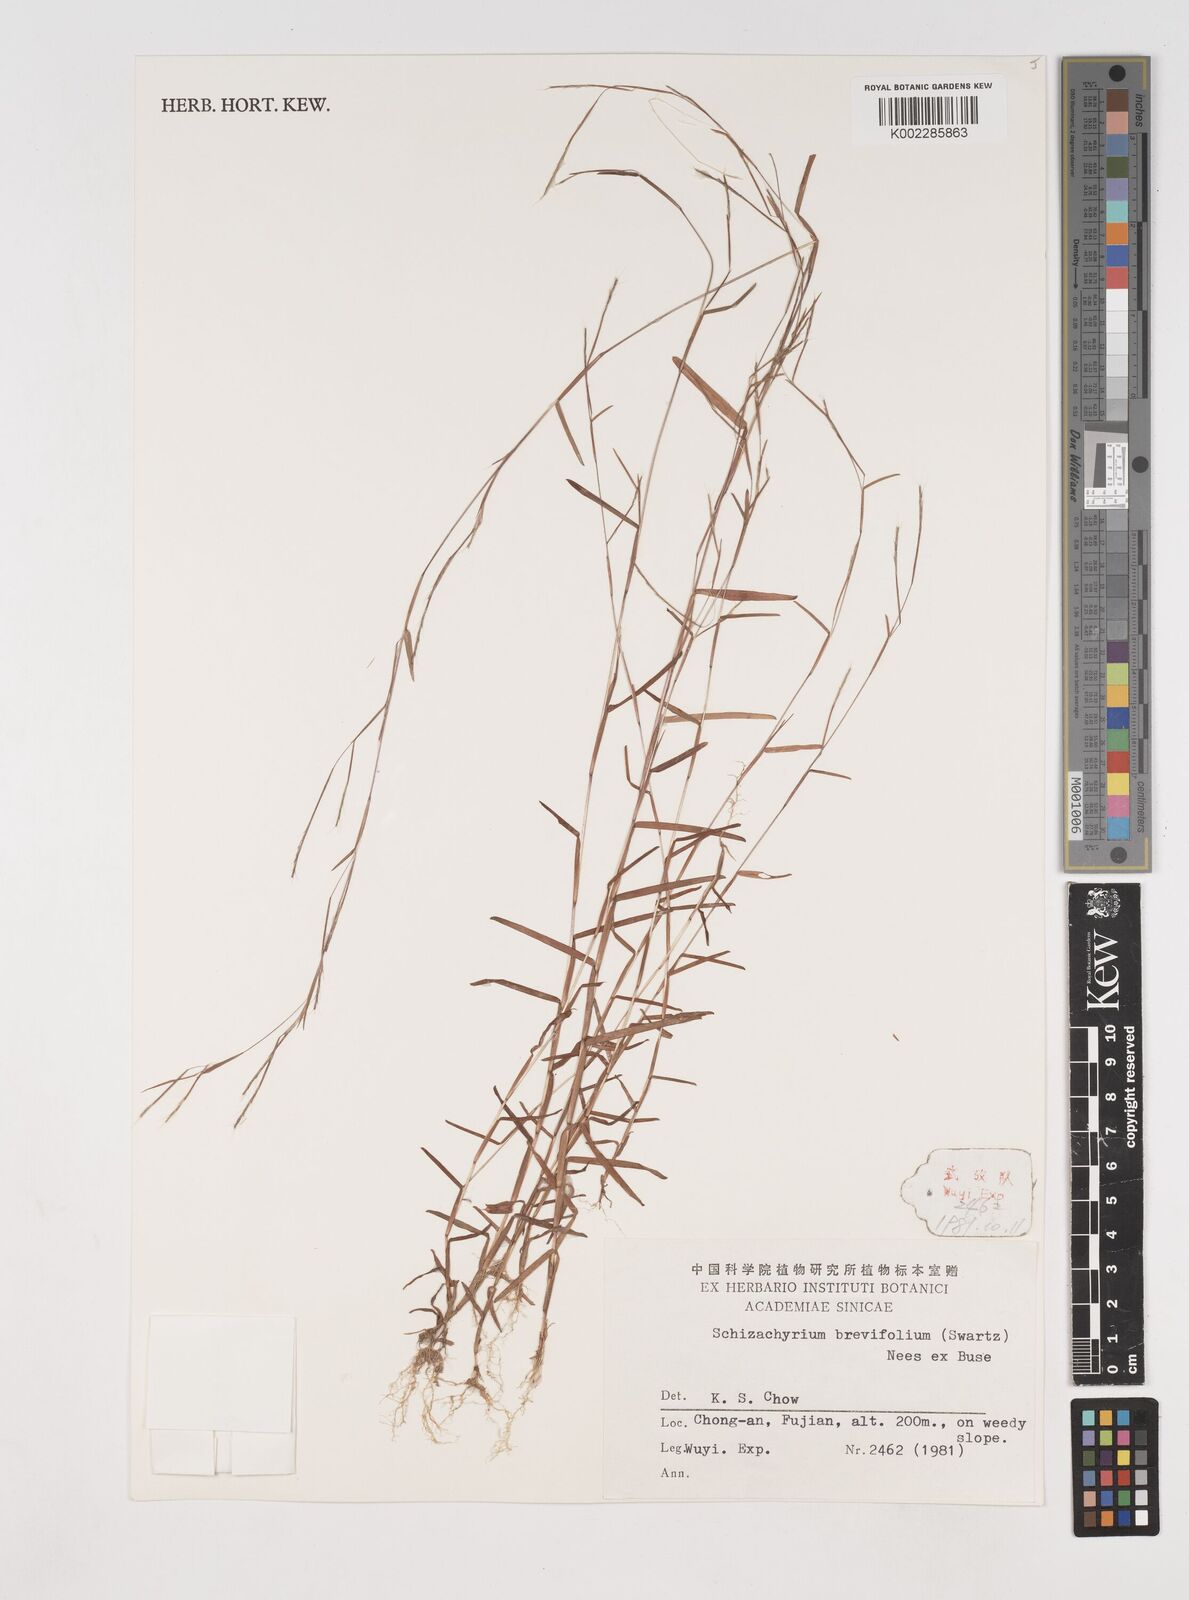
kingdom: Plantae
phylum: Tracheophyta
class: Liliopsida
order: Poales
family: Poaceae
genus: Schizachyrium
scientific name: Schizachyrium brevifolium
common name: Serillo dulce
